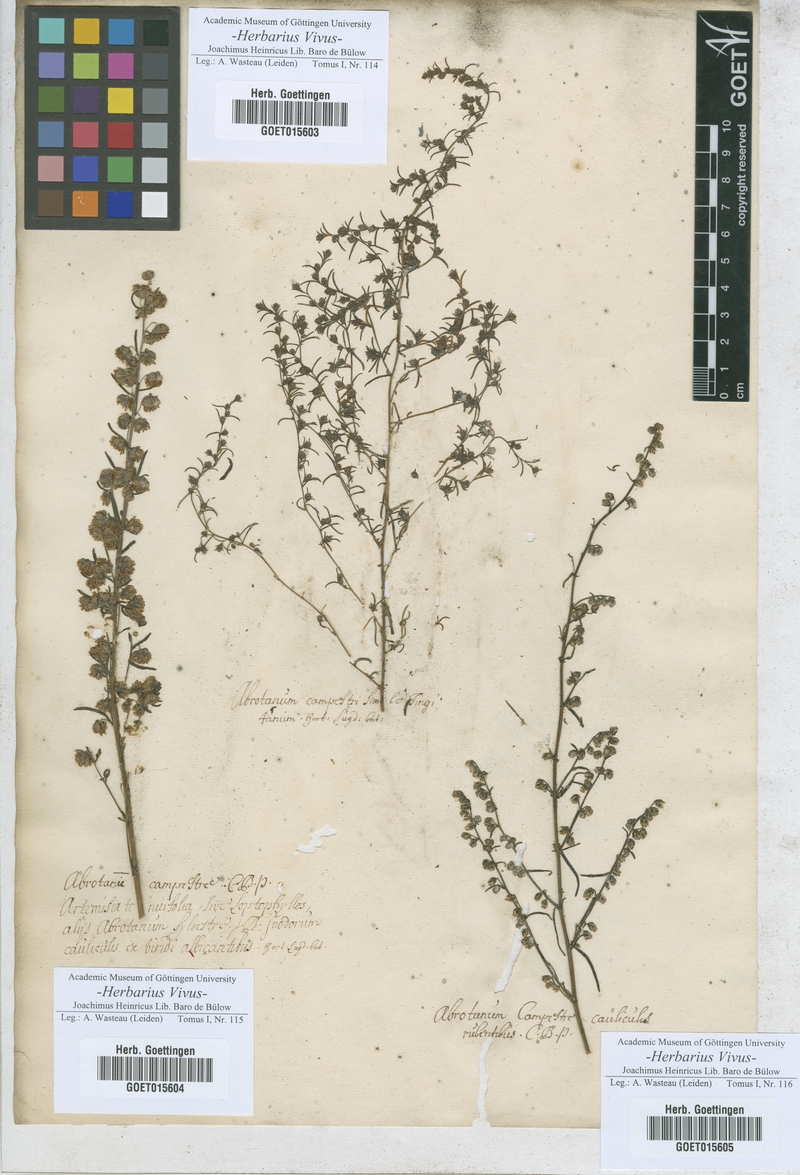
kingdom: Plantae
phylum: Tracheophyta
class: Magnoliopsida
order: Asterales
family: Asteraceae
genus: Artemisia
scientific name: Artemisia
